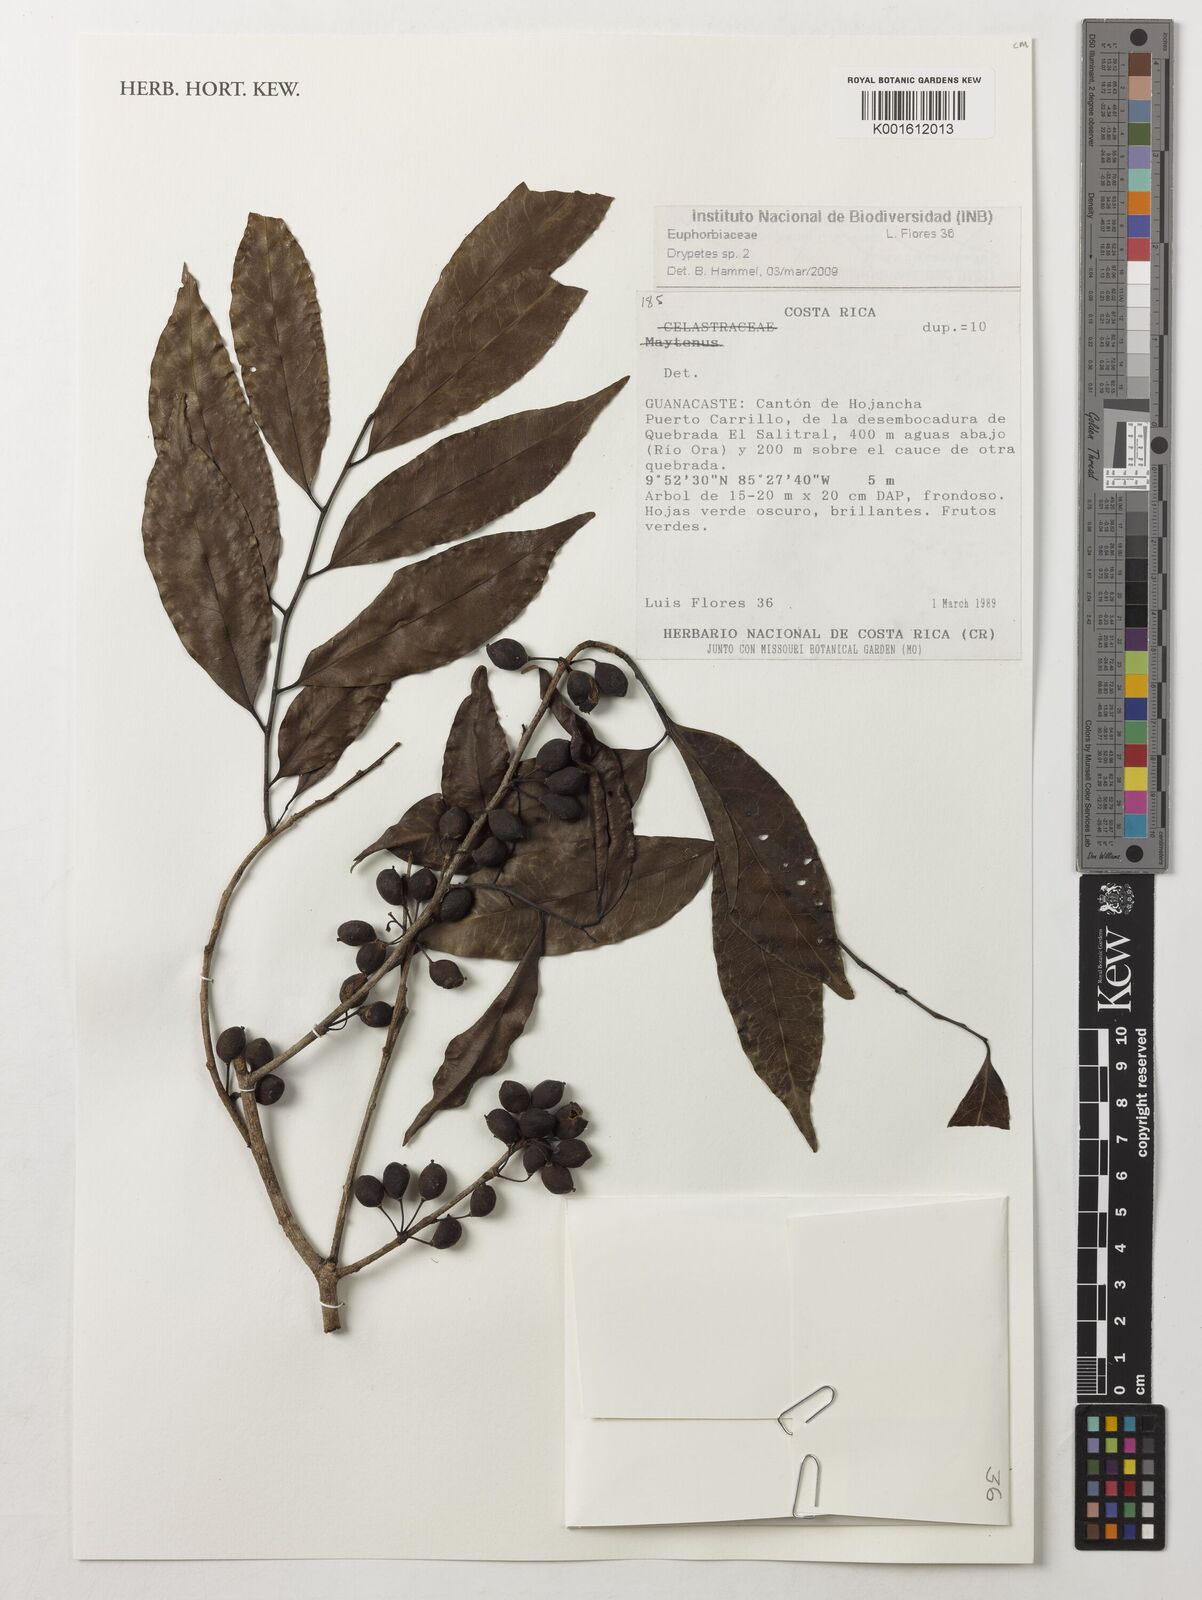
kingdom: Plantae
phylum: Tracheophyta
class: Magnoliopsida
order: Malpighiales
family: Putranjivaceae
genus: Drypetes
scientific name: Drypetes
